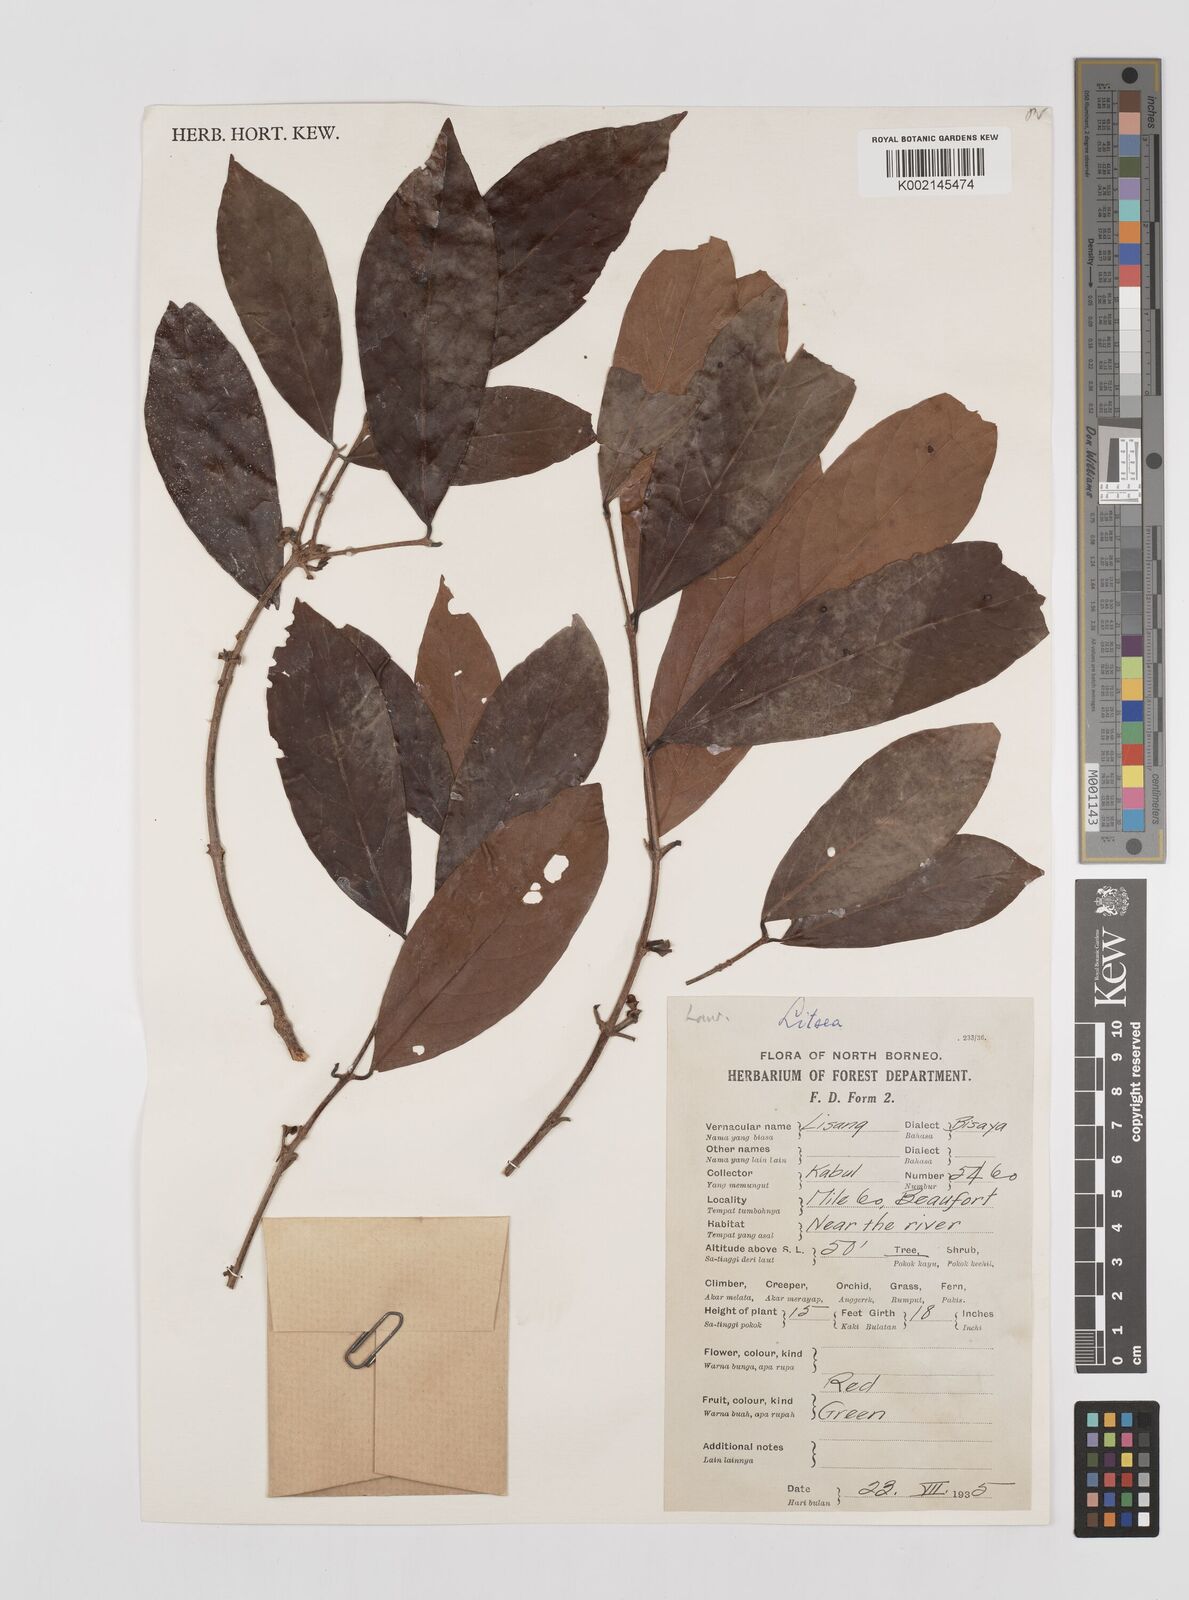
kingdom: Plantae
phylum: Tracheophyta
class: Magnoliopsida
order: Laurales
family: Lauraceae
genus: Litsea
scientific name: Litsea
